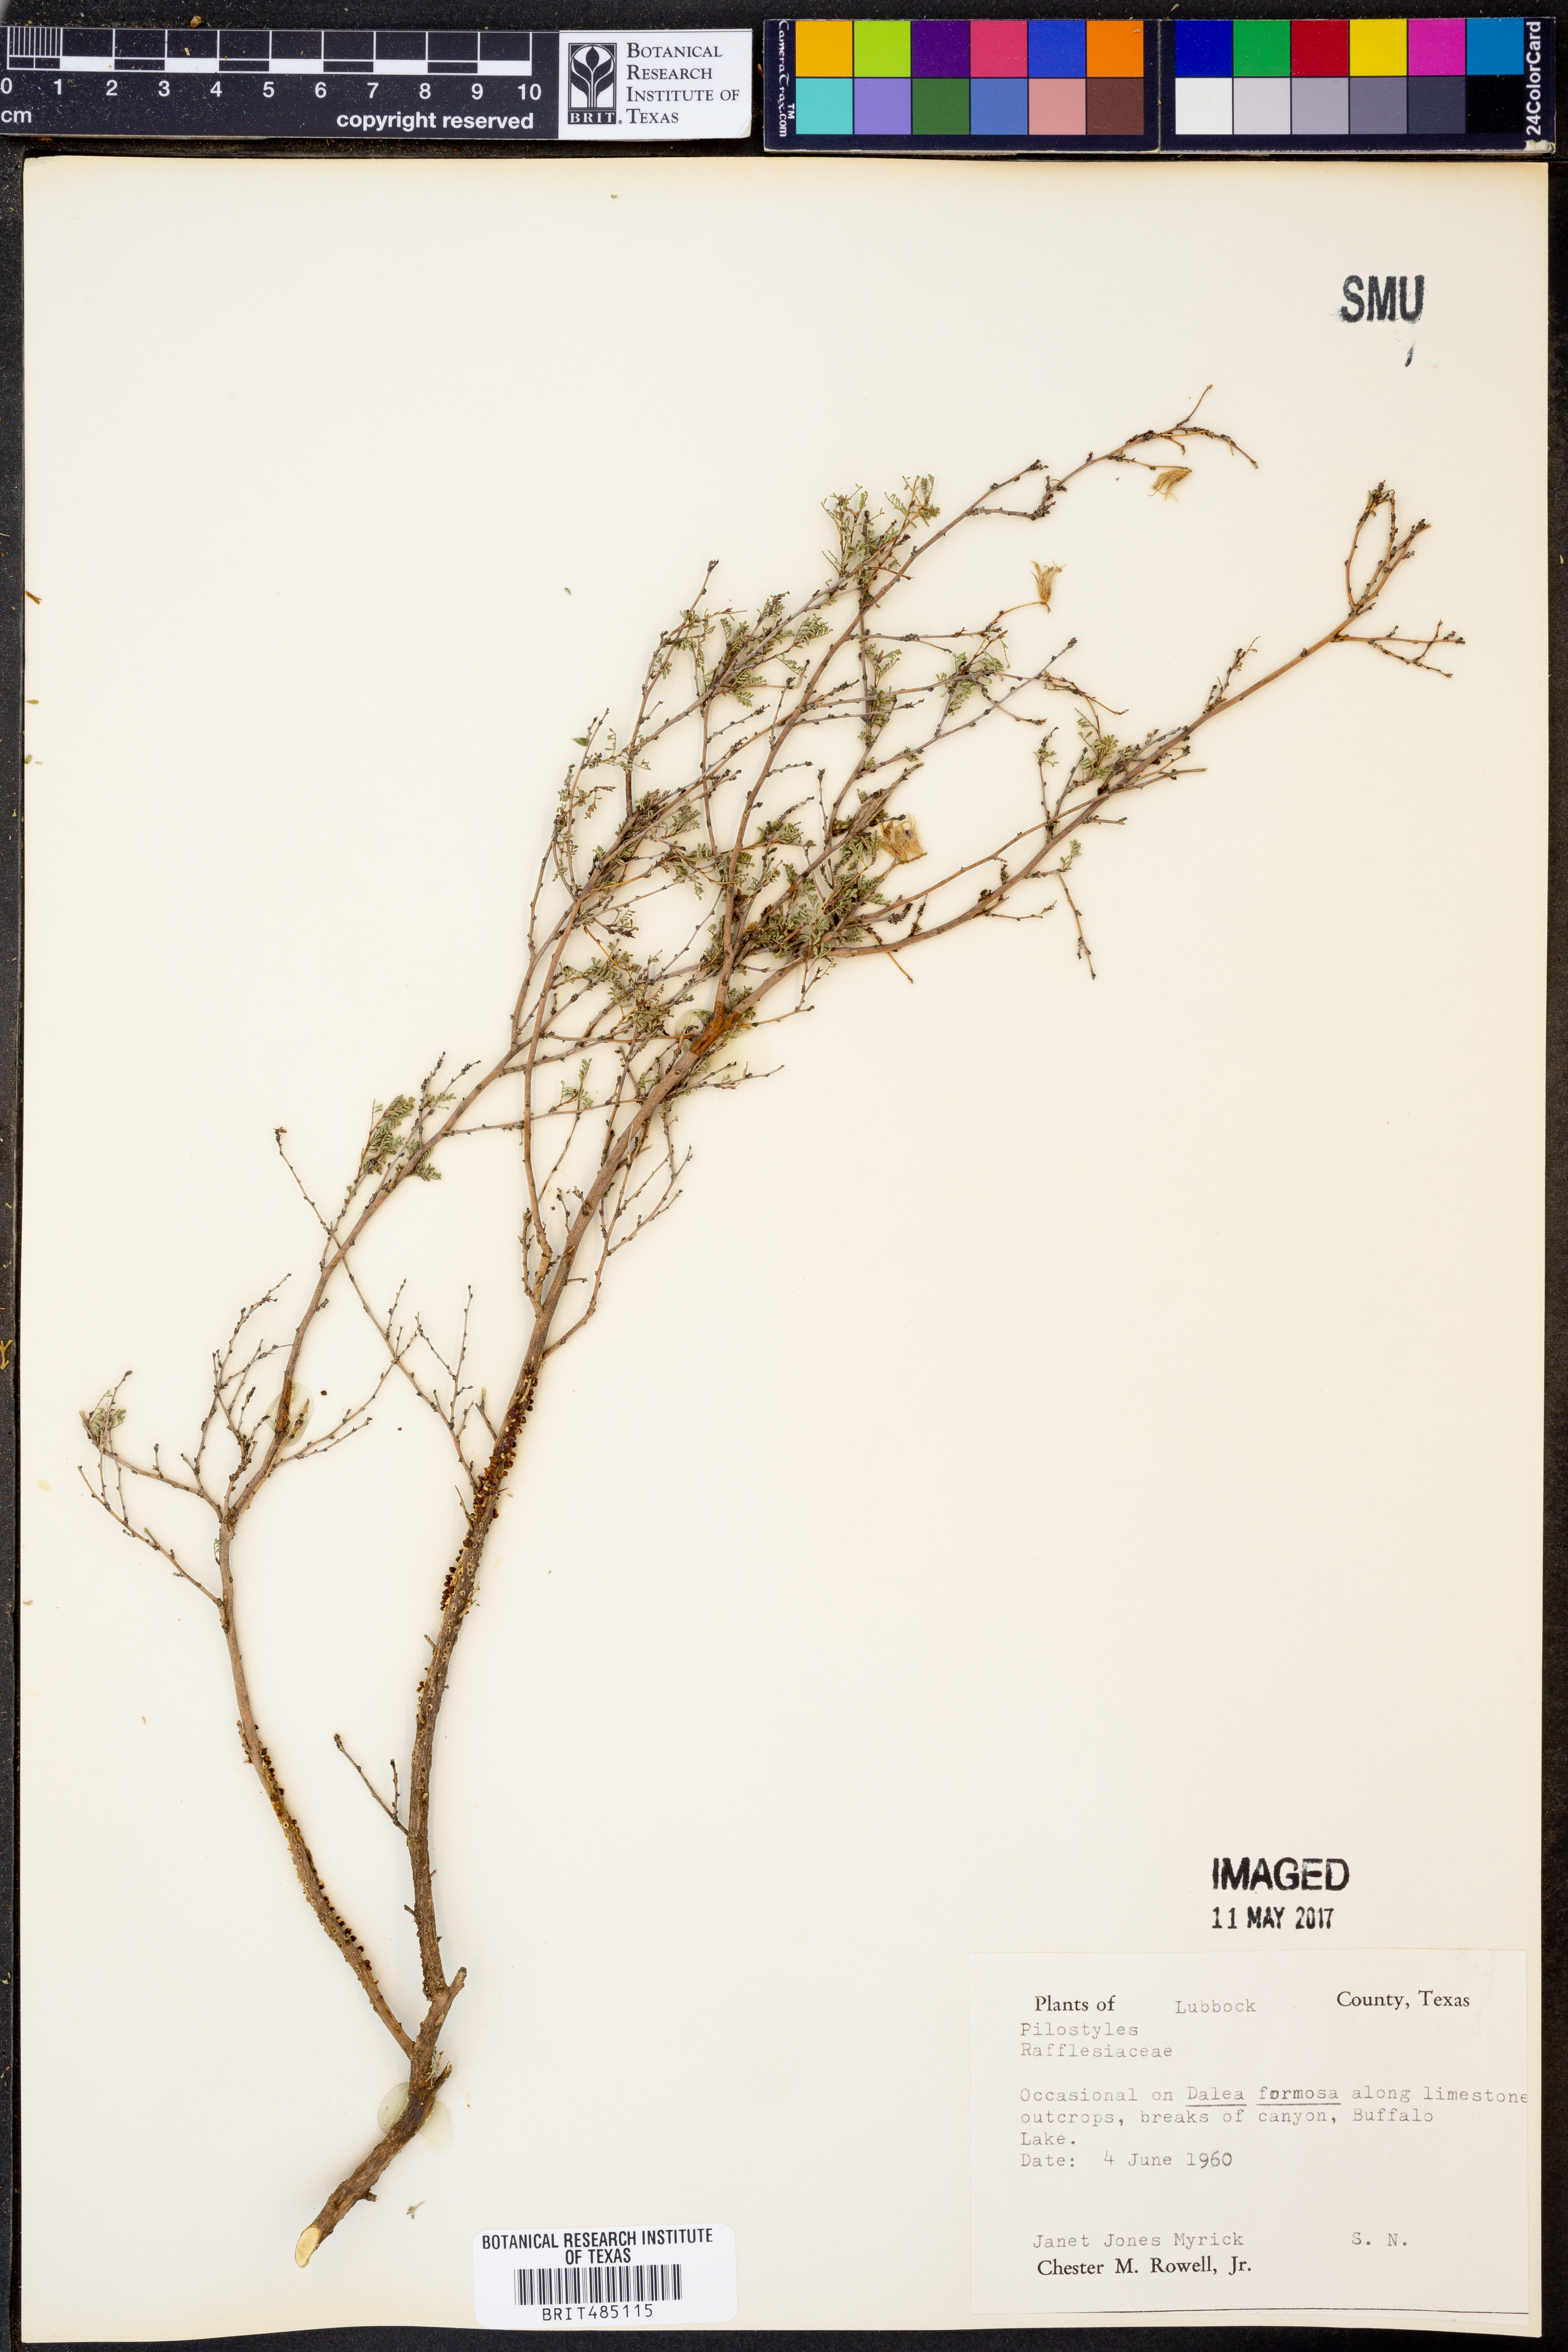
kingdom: Plantae
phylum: Tracheophyta
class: Magnoliopsida
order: Cucurbitales
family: Apodanthaceae
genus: Pilostyles
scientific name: Pilostyles
